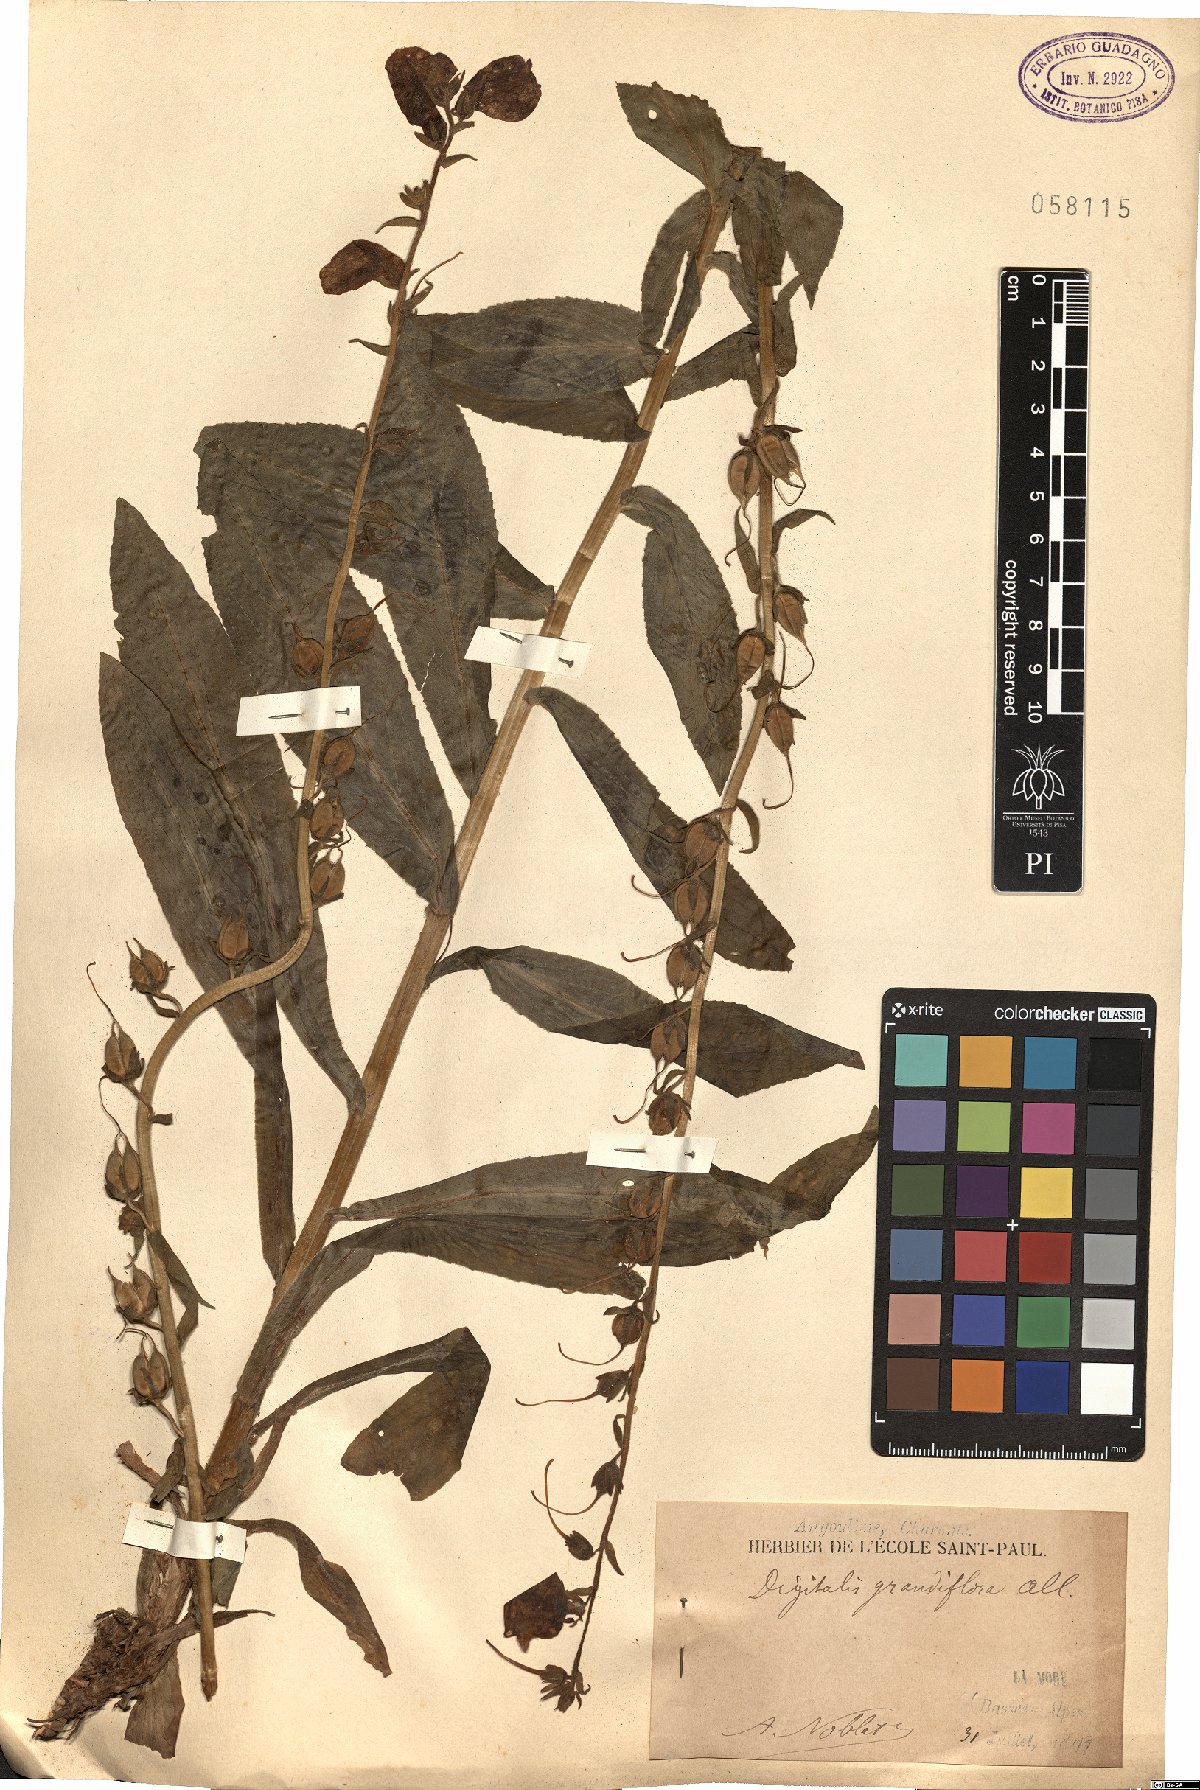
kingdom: Plantae
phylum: Tracheophyta
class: Magnoliopsida
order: Lamiales
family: Plantaginaceae
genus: Digitalis
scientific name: Digitalis grandiflora
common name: Yellow foxglove
